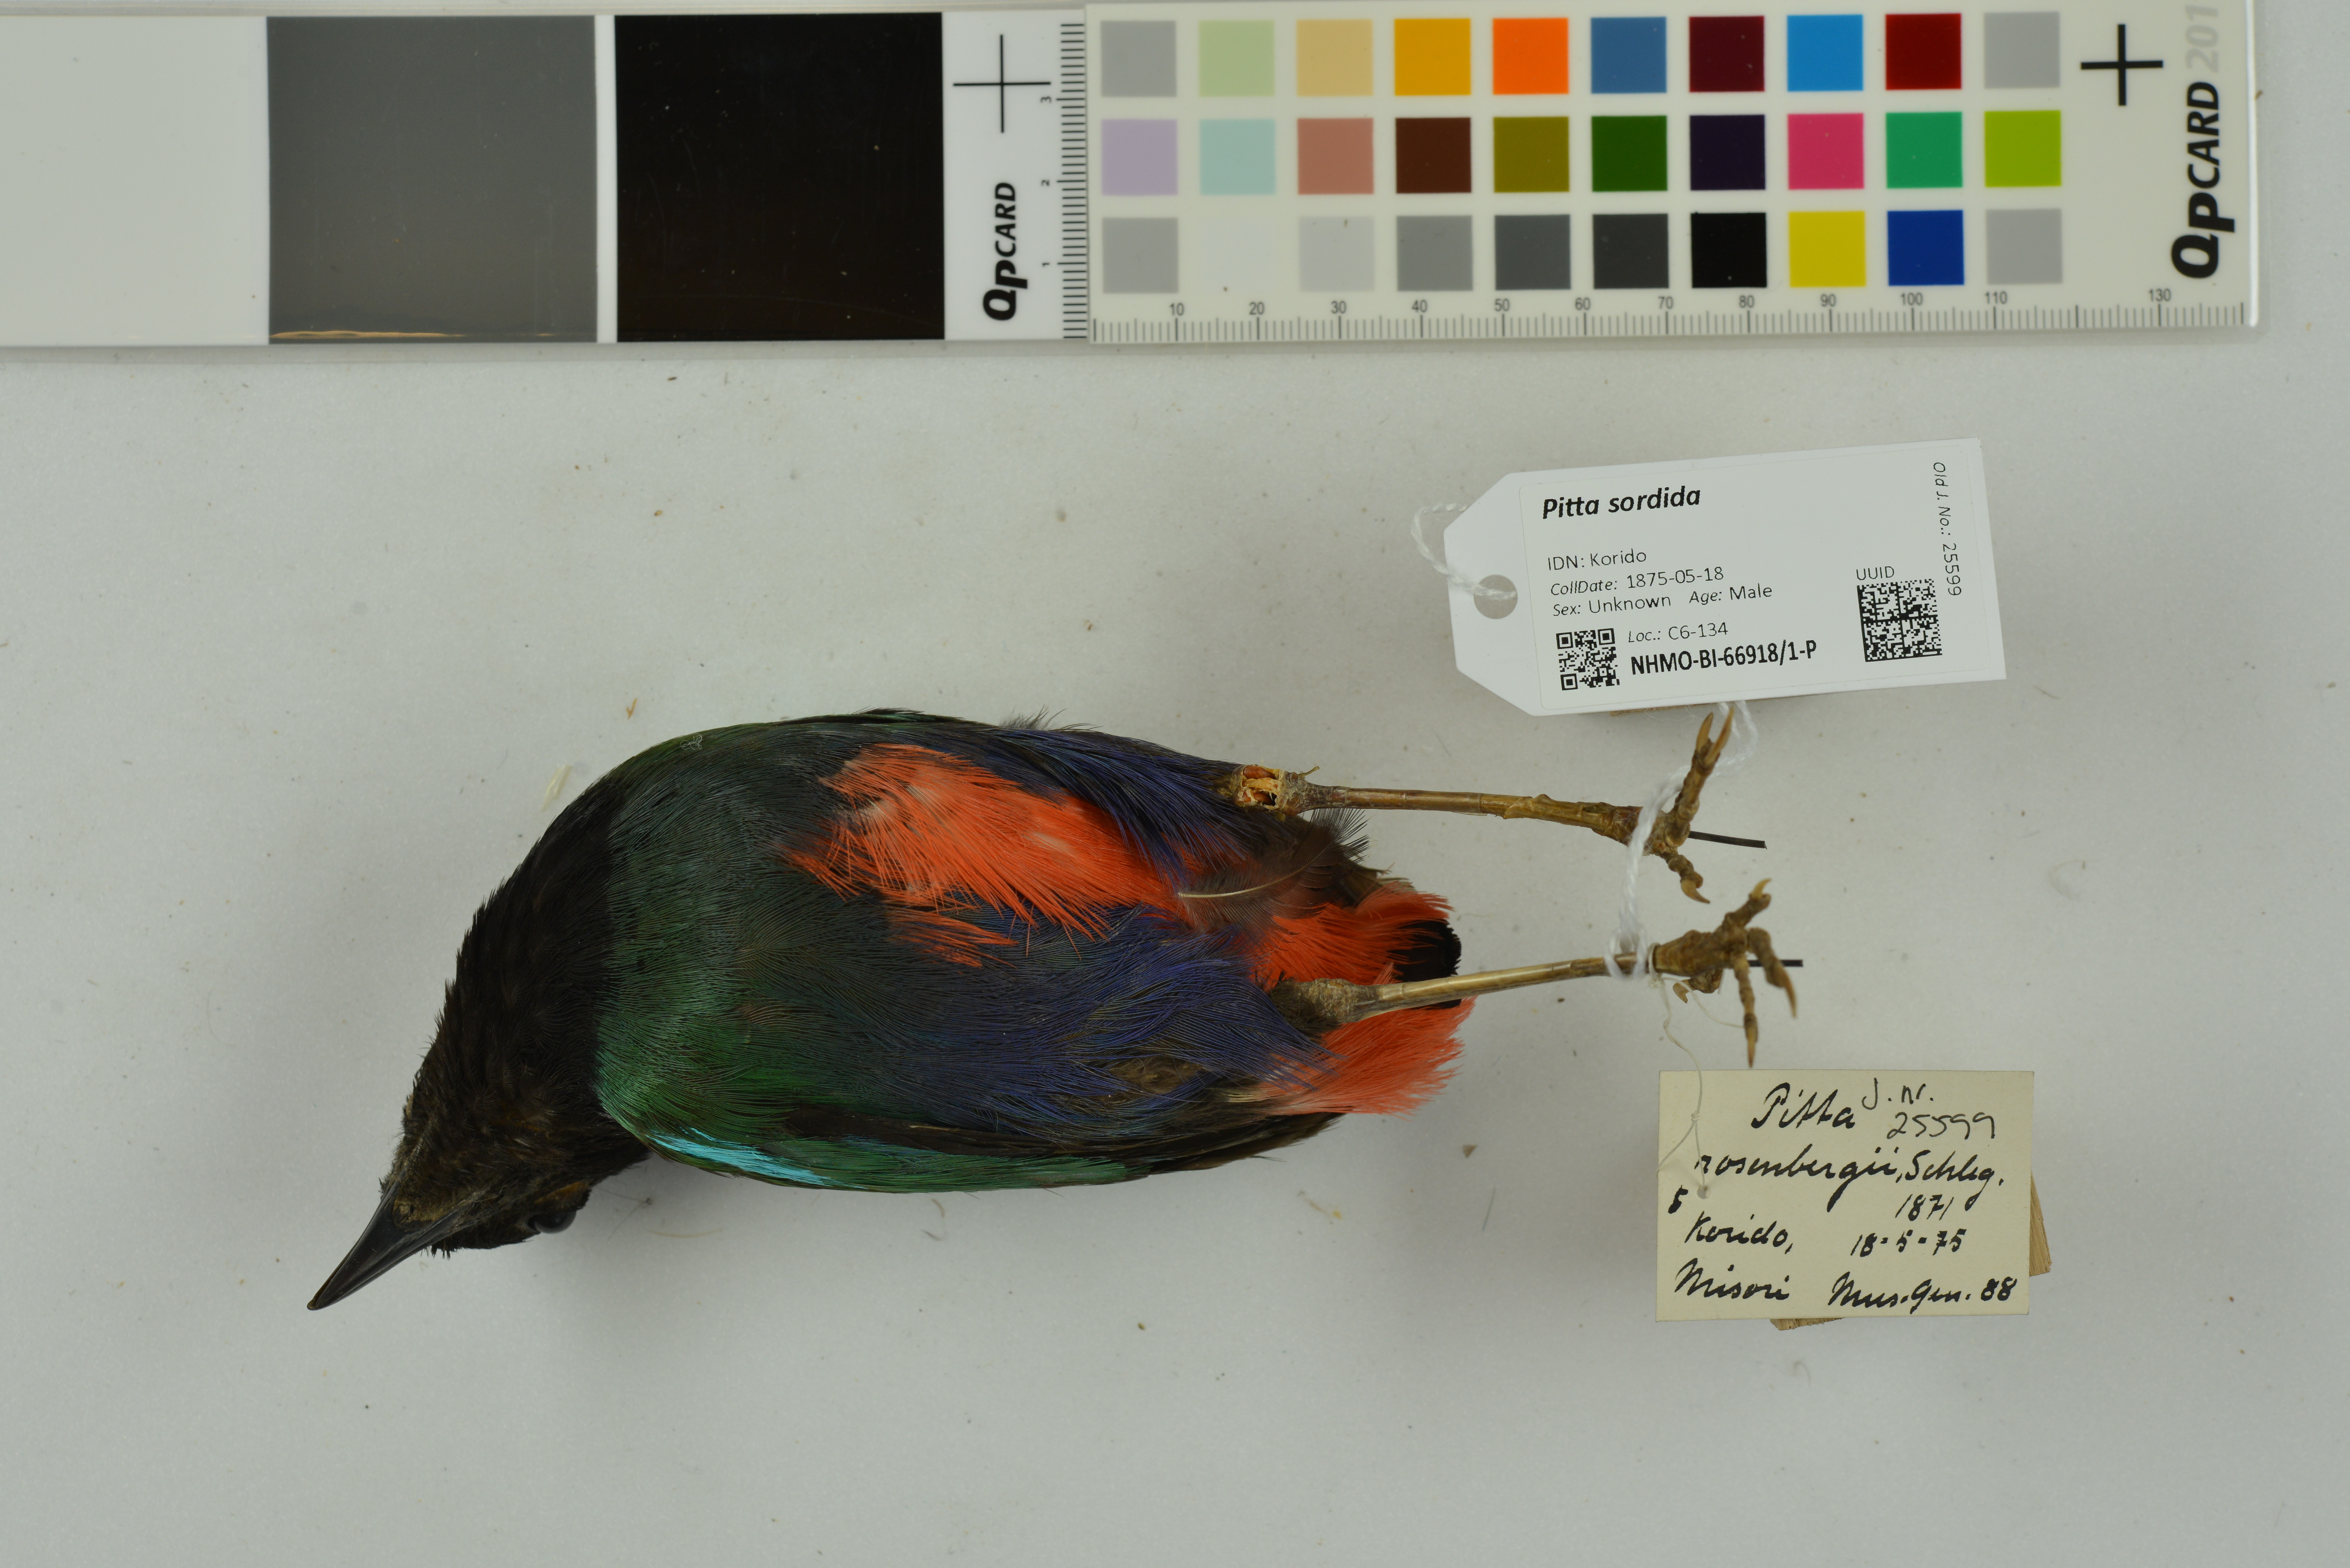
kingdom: Animalia
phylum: Chordata
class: Aves
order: Passeriformes
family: Pittidae
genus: Pitta
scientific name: Pitta sordida
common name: Hooded pitta
